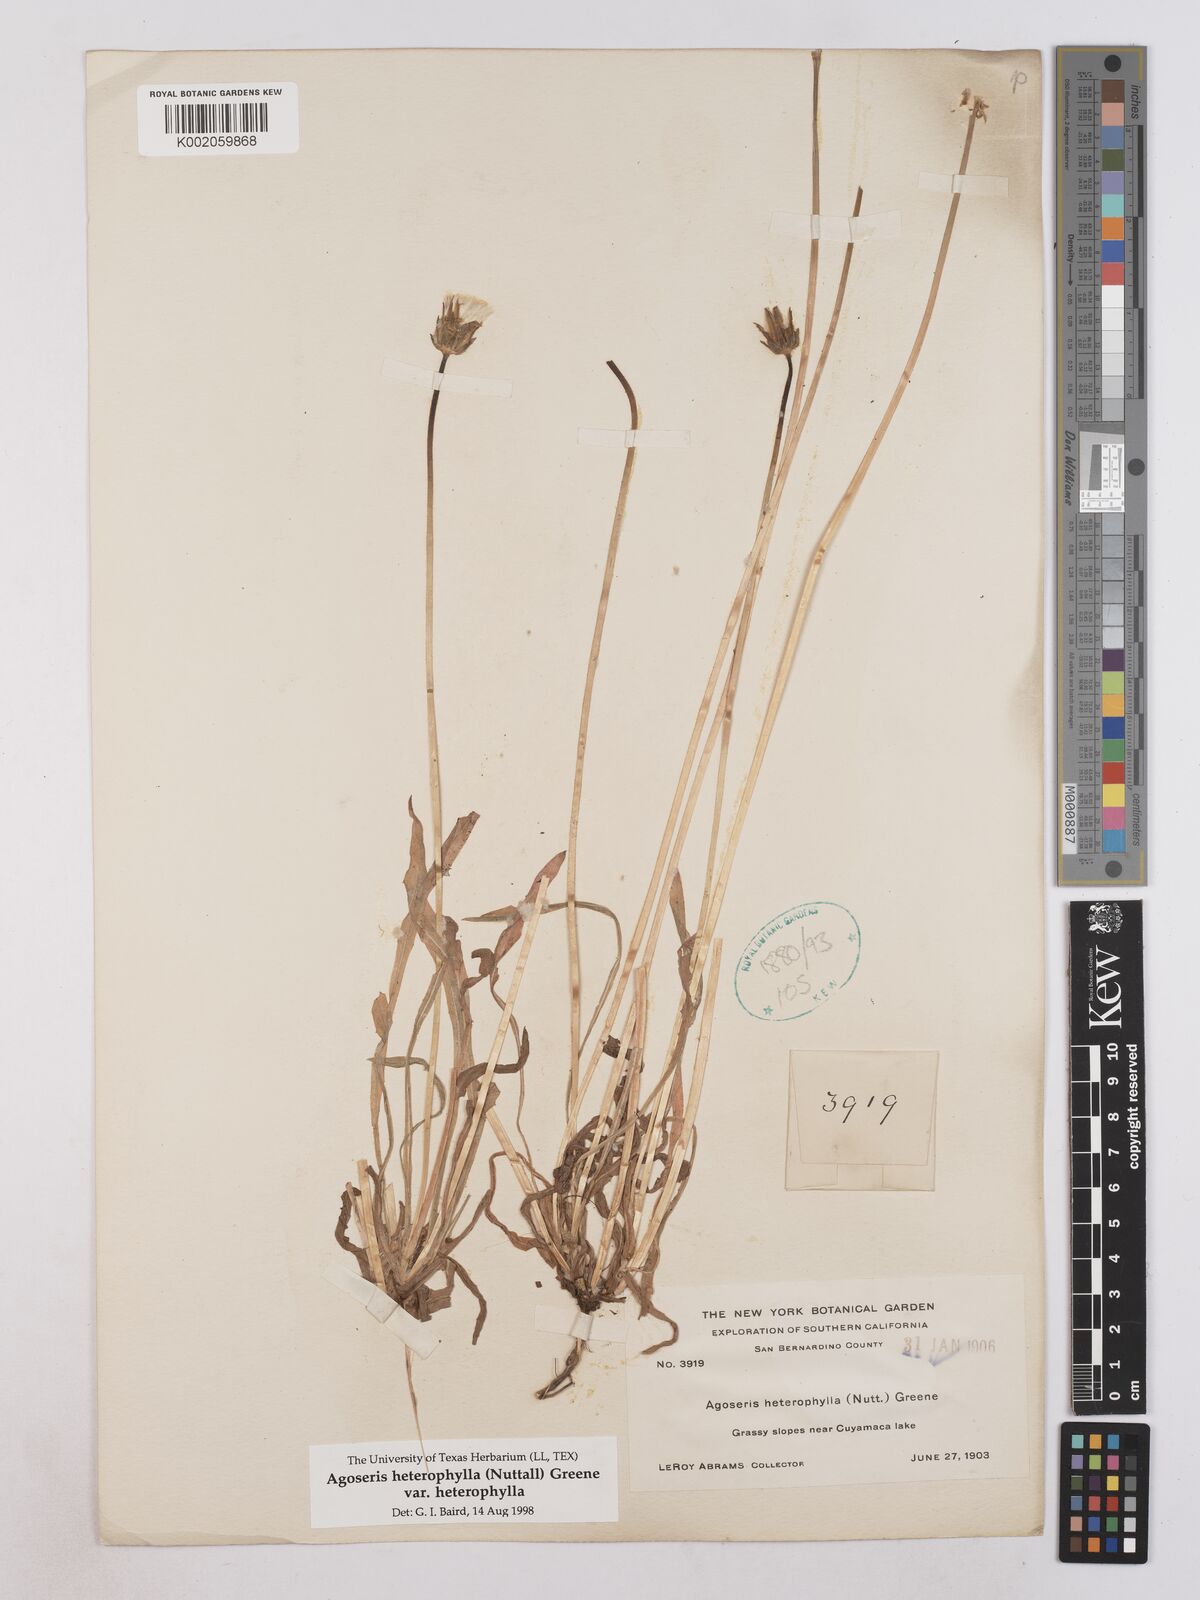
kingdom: Plantae
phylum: Tracheophyta
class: Magnoliopsida
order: Asterales
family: Asteraceae
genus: Agoseris
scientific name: Agoseris heterophylla
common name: Annual agoseris
